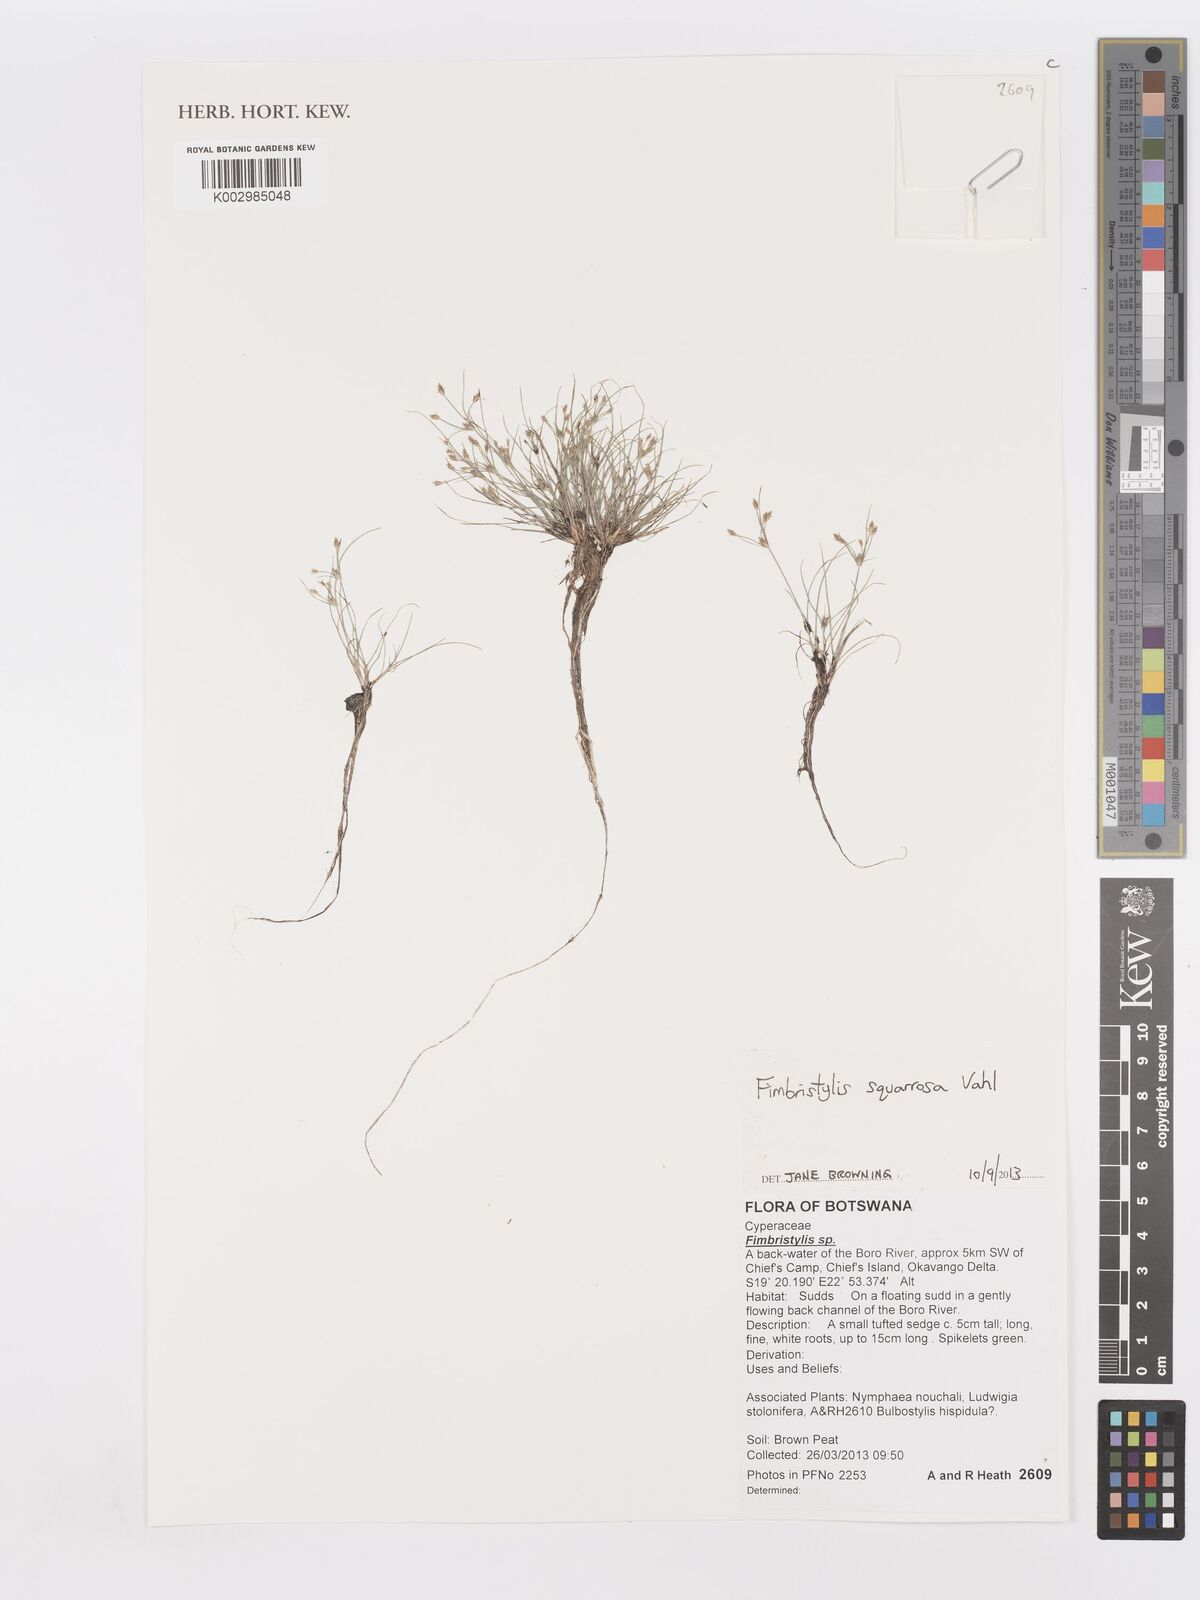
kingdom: Plantae
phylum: Tracheophyta
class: Liliopsida
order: Poales
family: Cyperaceae
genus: Fimbristylis
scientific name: Fimbristylis squarrosa
